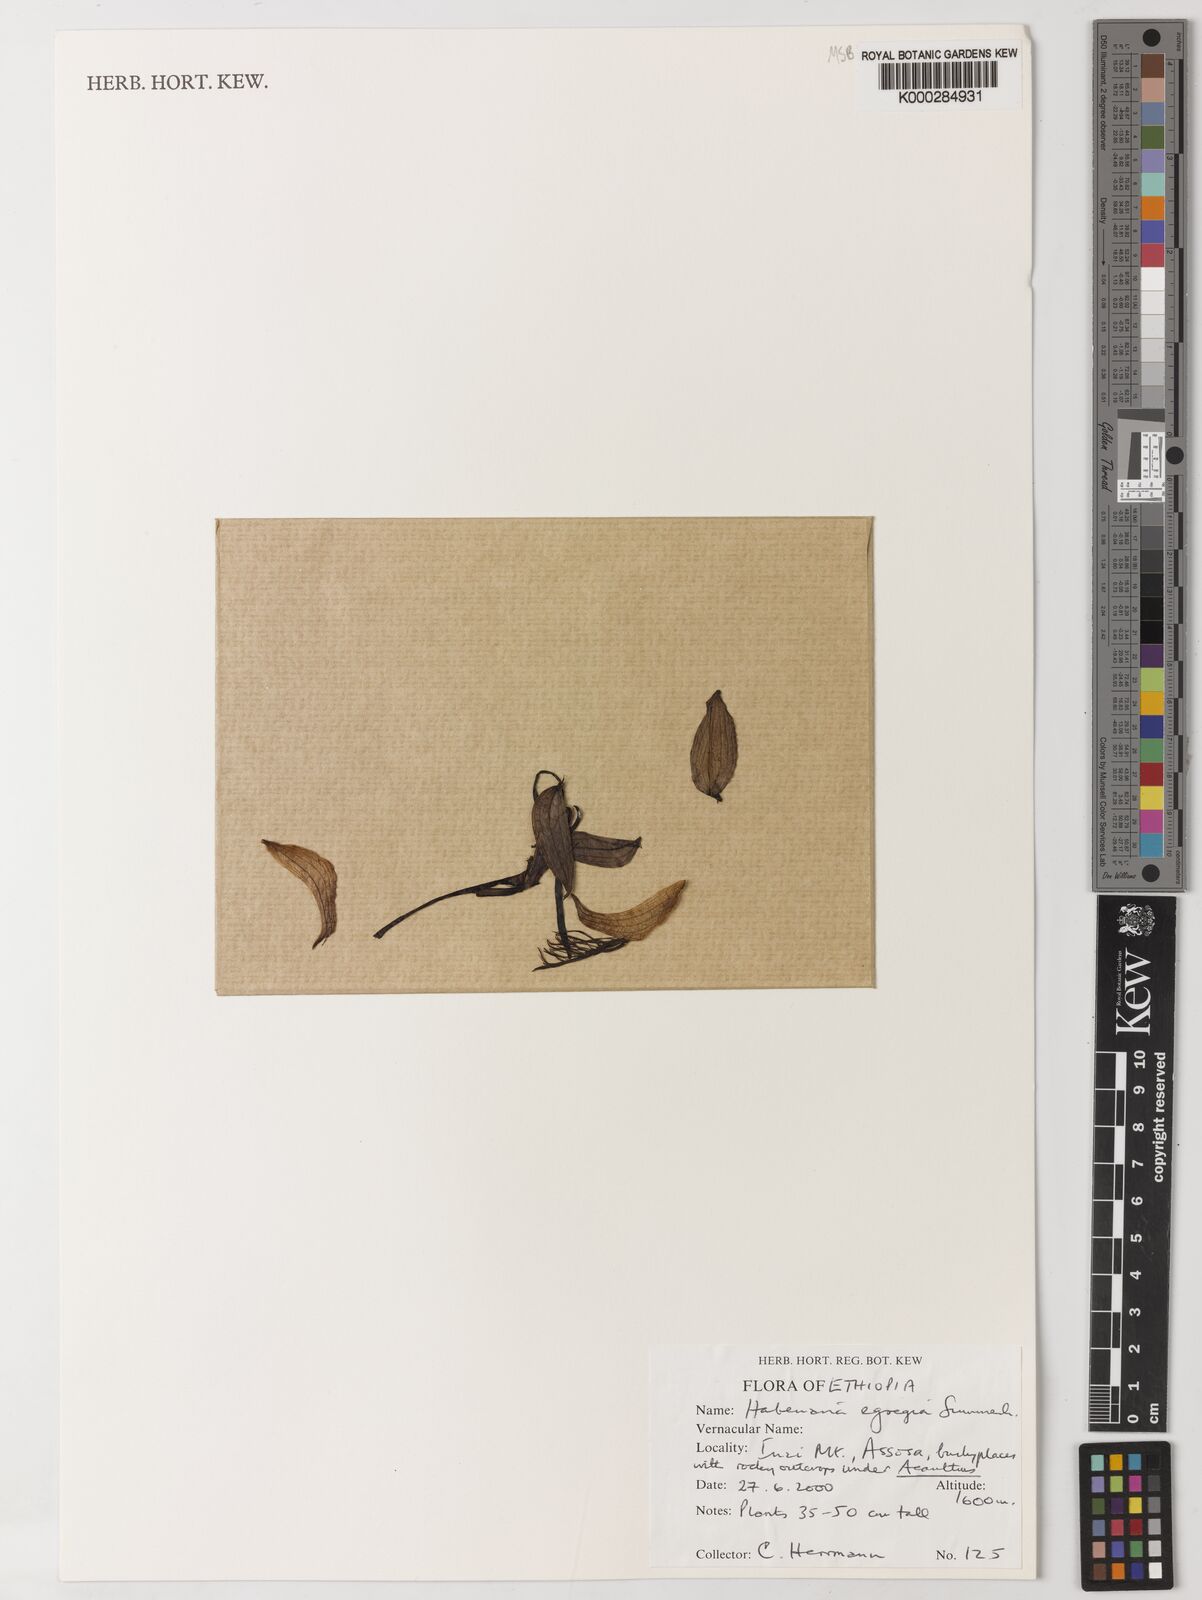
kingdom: Plantae
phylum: Tracheophyta
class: Liliopsida
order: Asparagales
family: Orchidaceae
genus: Habenaria
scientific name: Habenaria egregia
